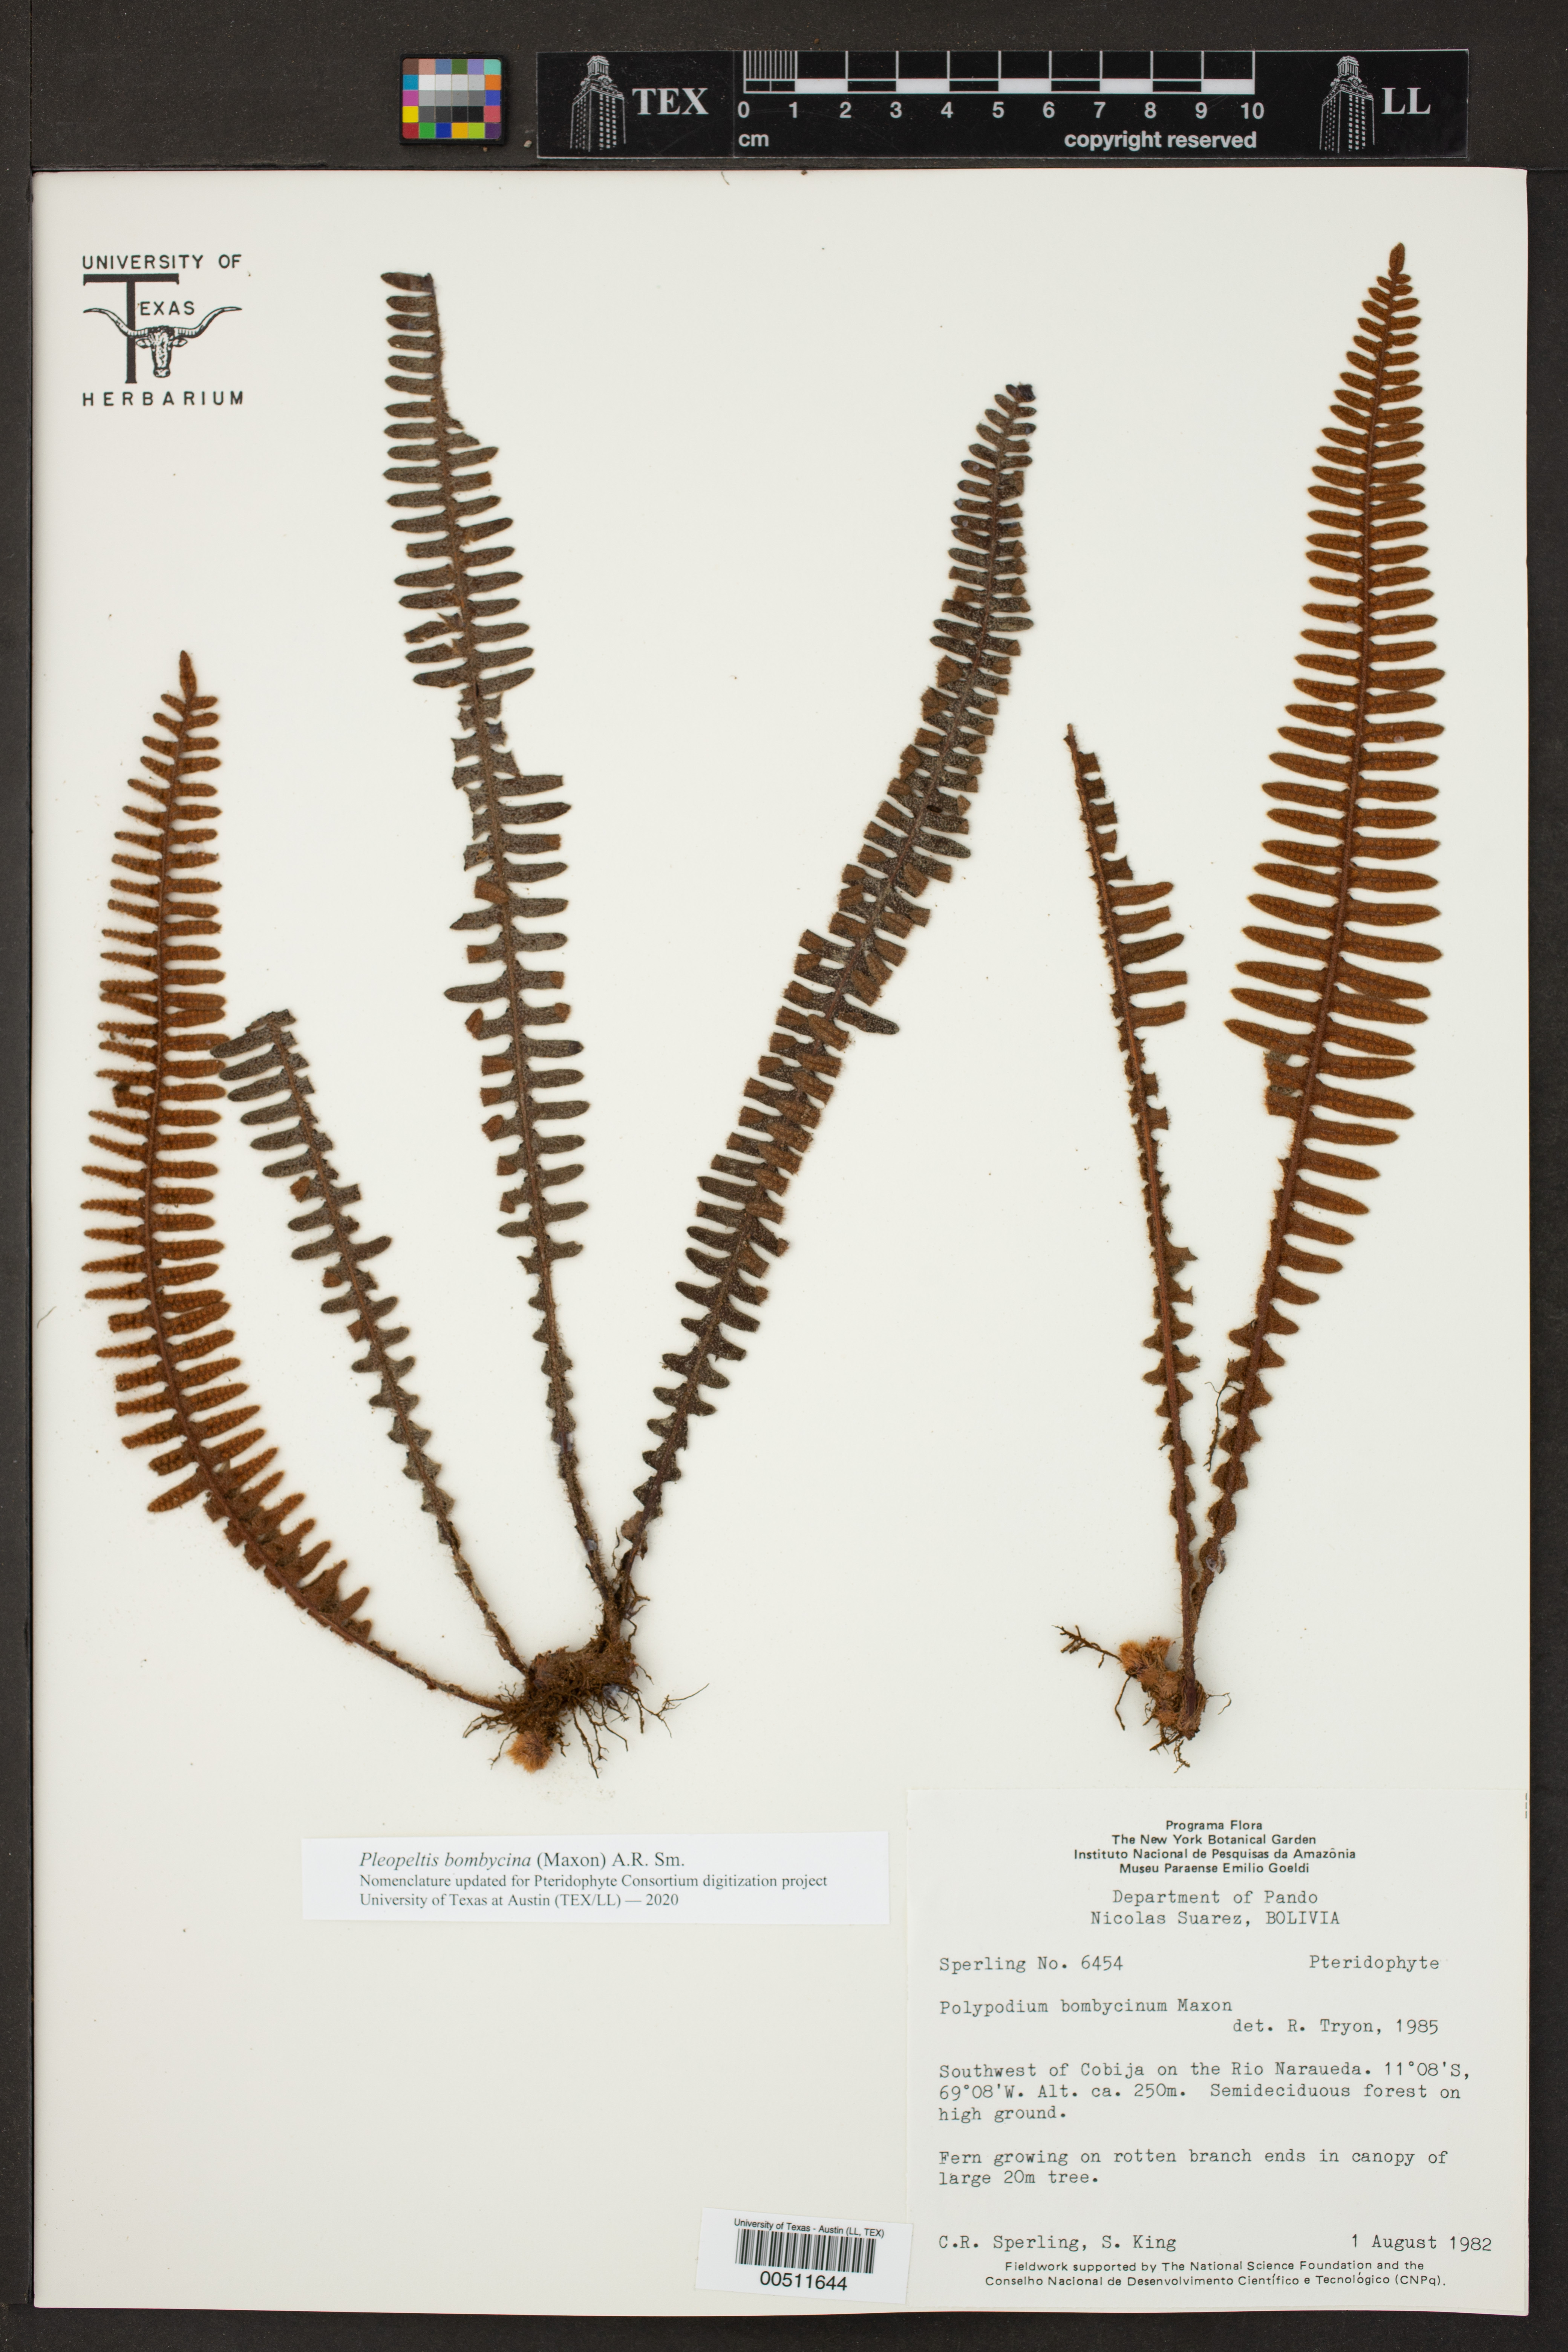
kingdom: Plantae
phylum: Tracheophyta
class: Polypodiopsida
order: Polypodiales
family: Polypodiaceae
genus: Pleopeltis
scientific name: Pleopeltis bombycina
